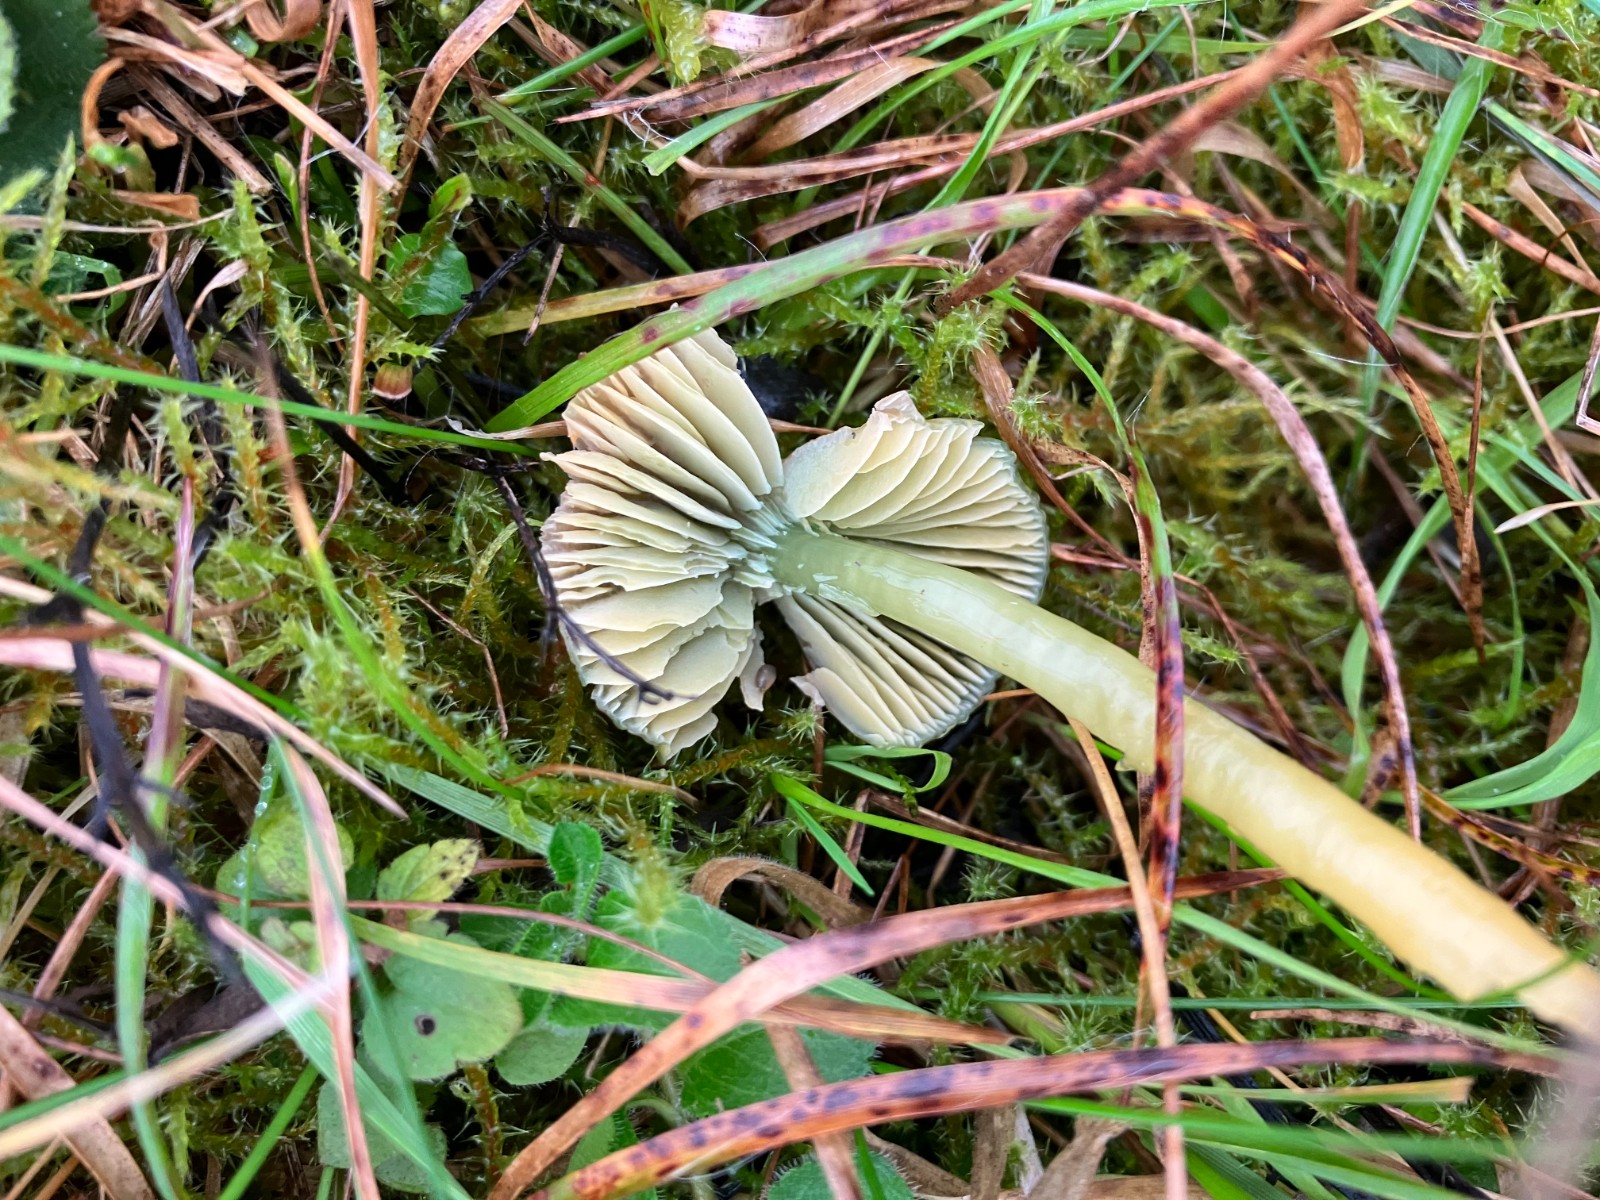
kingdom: Fungi
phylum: Basidiomycota
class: Agaricomycetes
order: Agaricales
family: Hygrophoraceae
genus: Gliophorus
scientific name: Gliophorus psittacinus
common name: papegøje-vokshat
